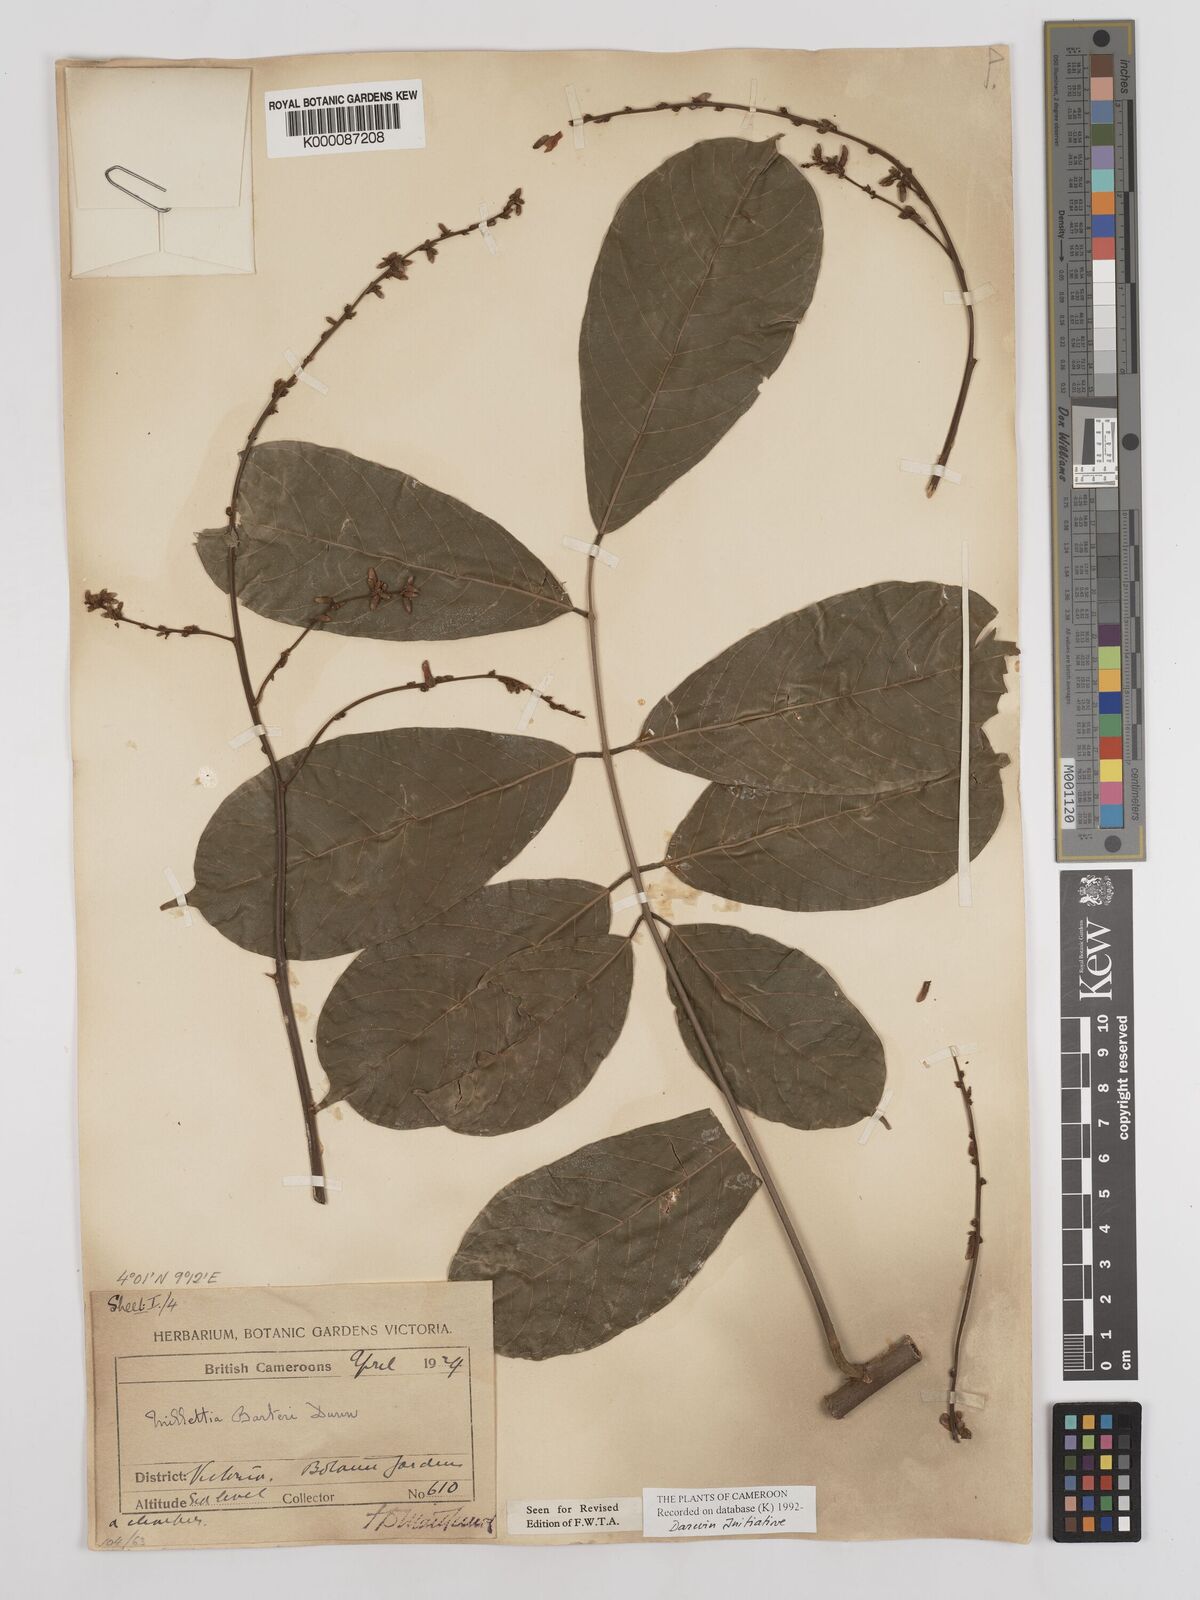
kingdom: Plantae
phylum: Tracheophyta
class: Magnoliopsida
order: Fabales
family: Fabaceae
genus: Millettia
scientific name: Millettia barteri
